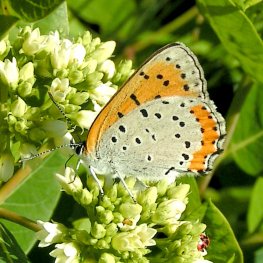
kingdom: Animalia
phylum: Arthropoda
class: Insecta
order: Lepidoptera
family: Sesiidae
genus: Sesia
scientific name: Sesia Lycaena hyllus
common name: Bronze Copper
